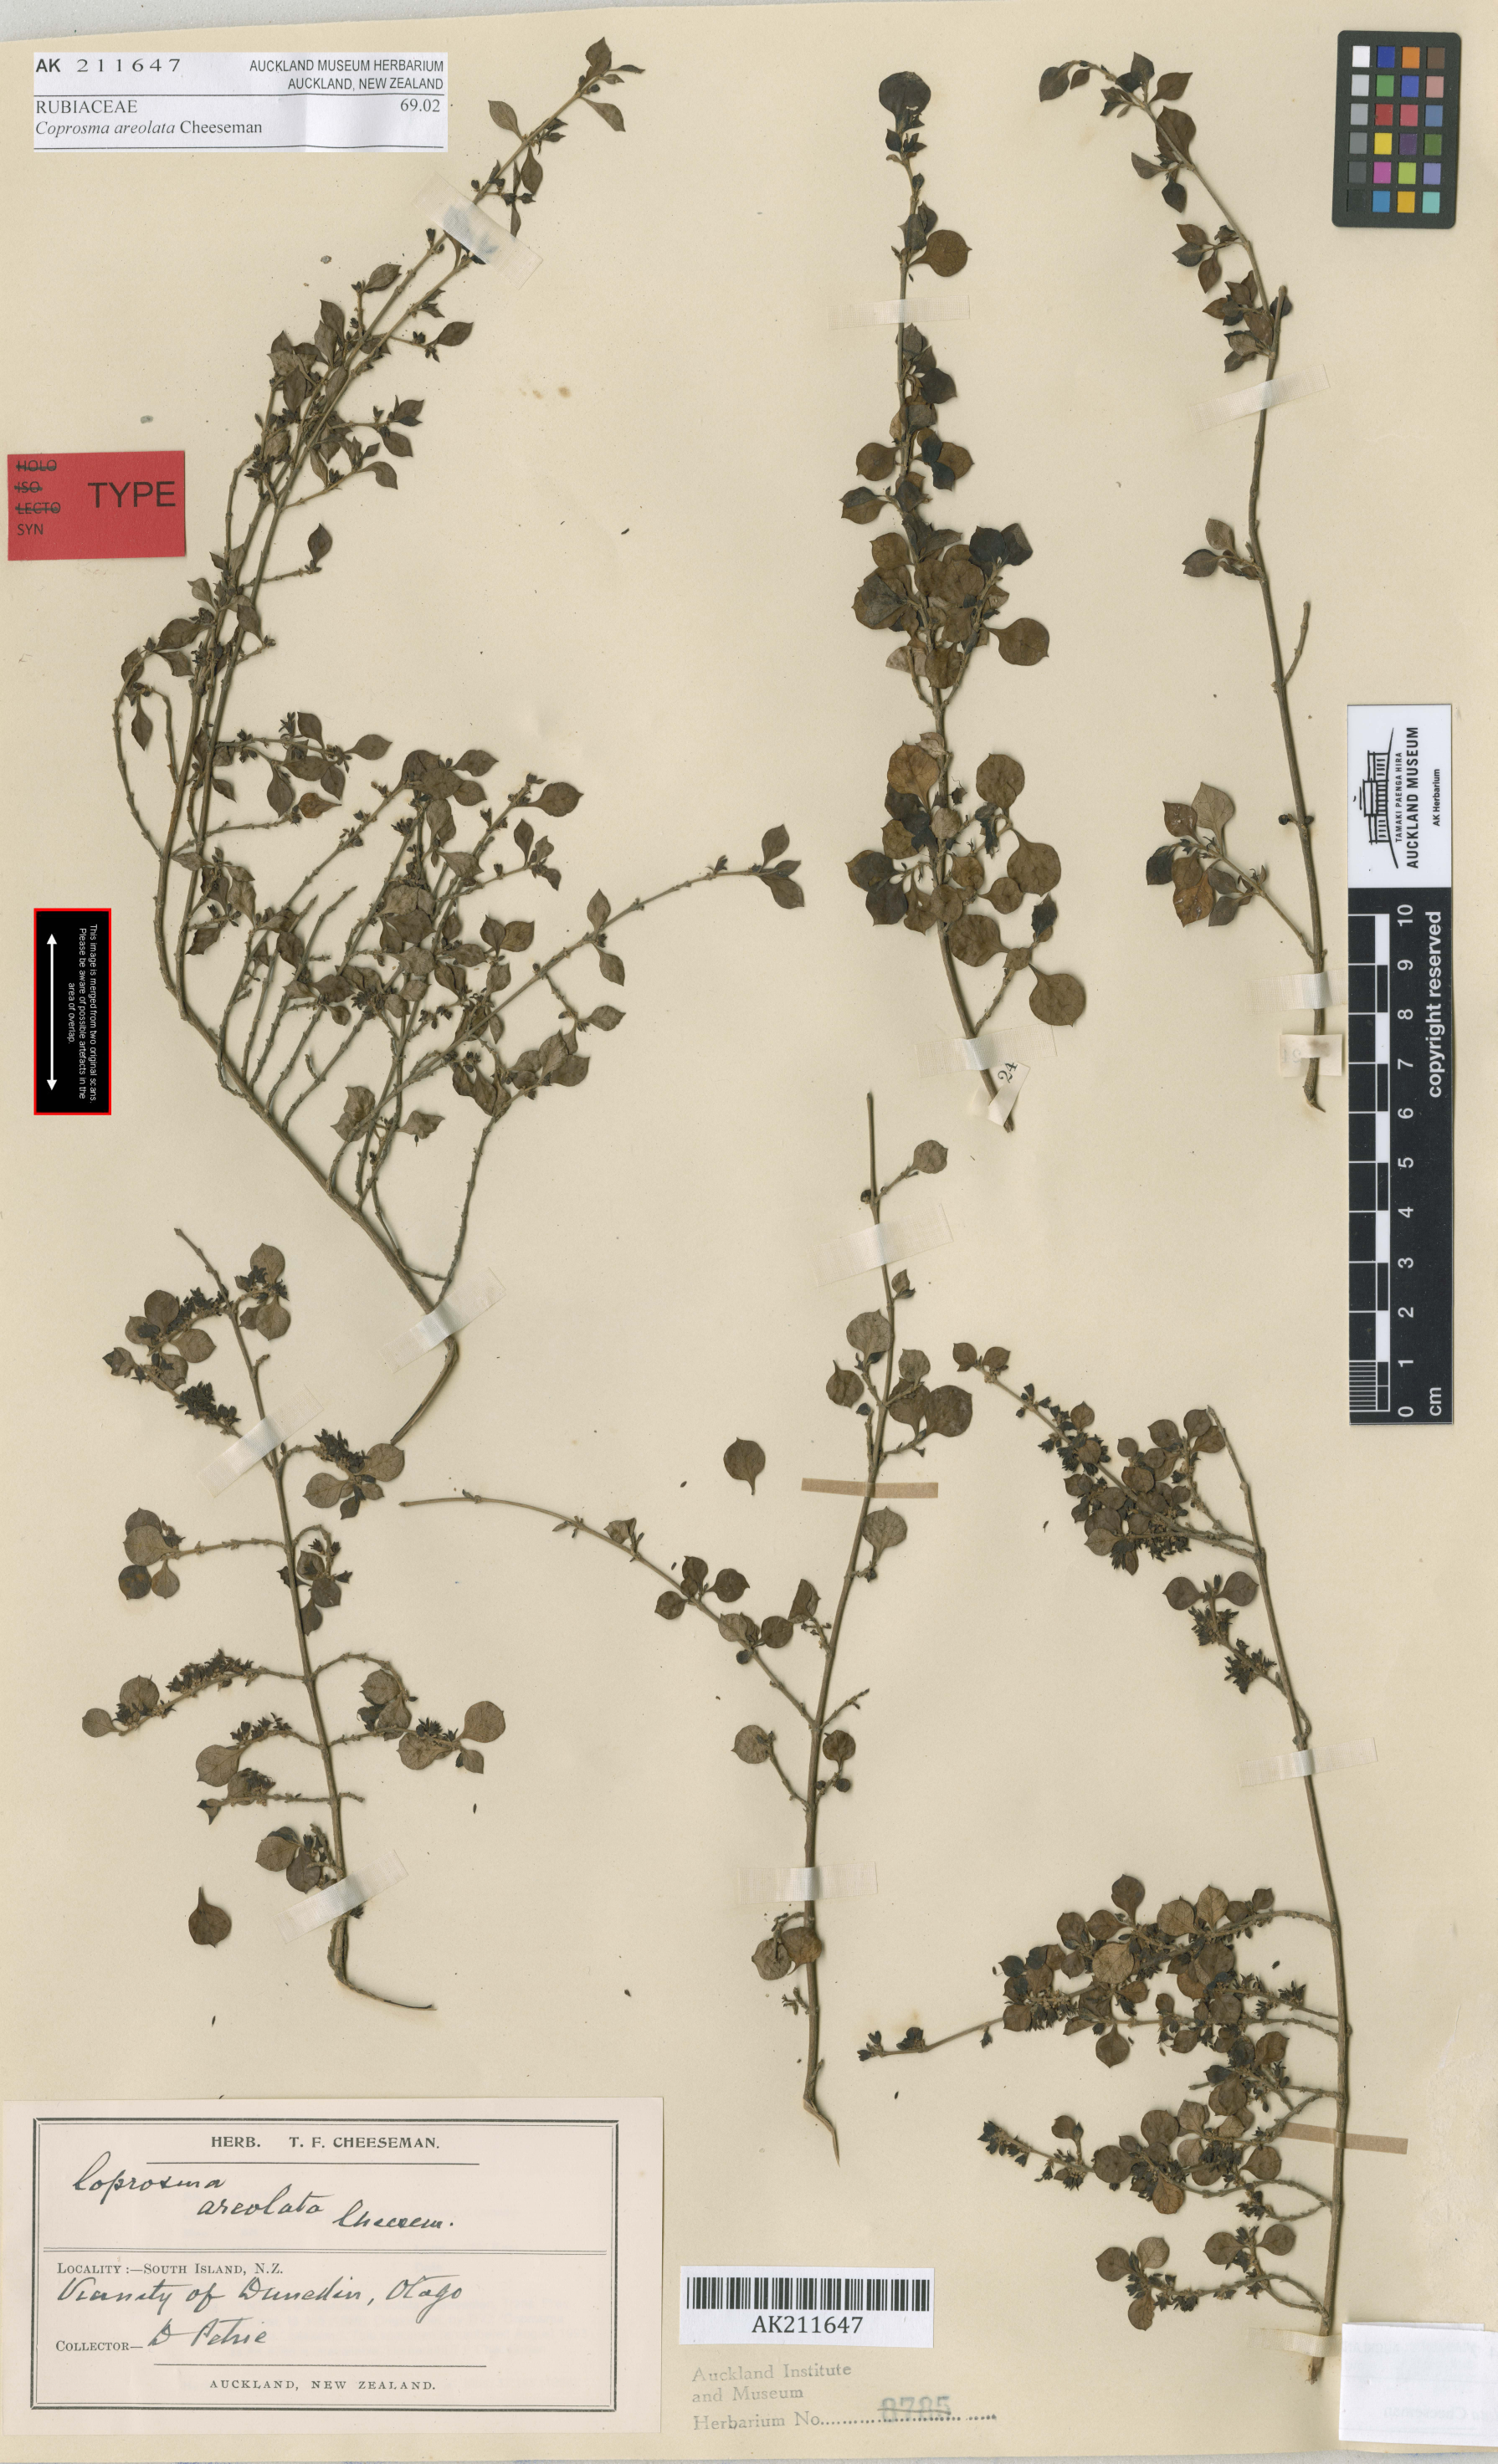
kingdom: Plantae
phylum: Tracheophyta
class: Magnoliopsida
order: Gentianales
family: Rubiaceae
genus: Coprosma
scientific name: Coprosma areolata
